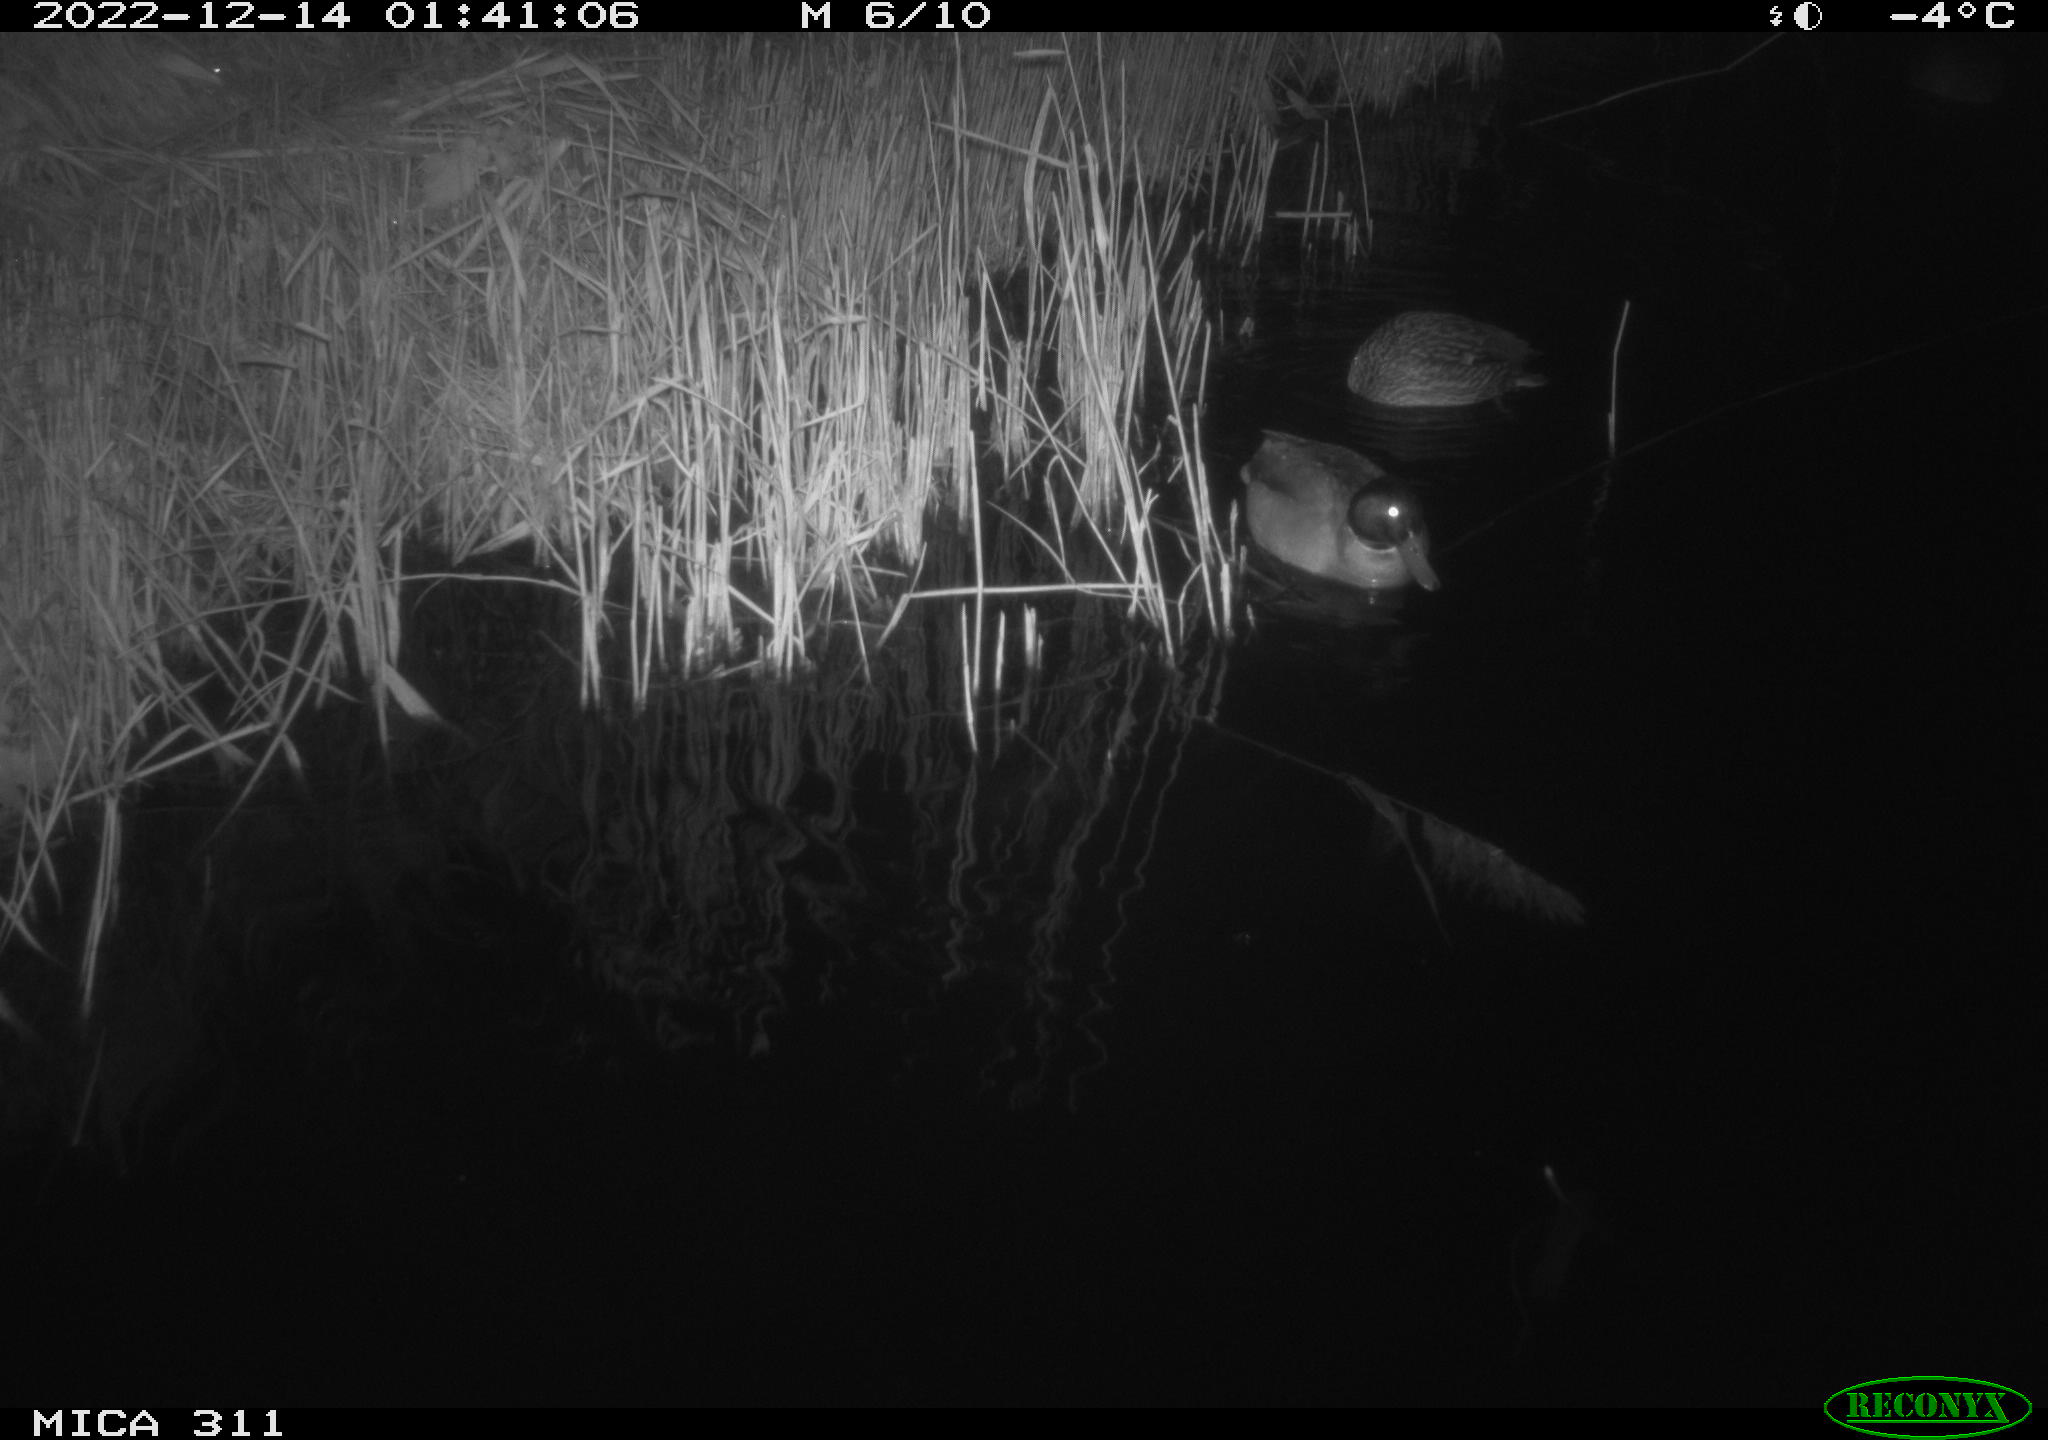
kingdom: Animalia
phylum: Chordata
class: Aves
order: Anseriformes
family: Anatidae
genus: Anas
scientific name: Anas
